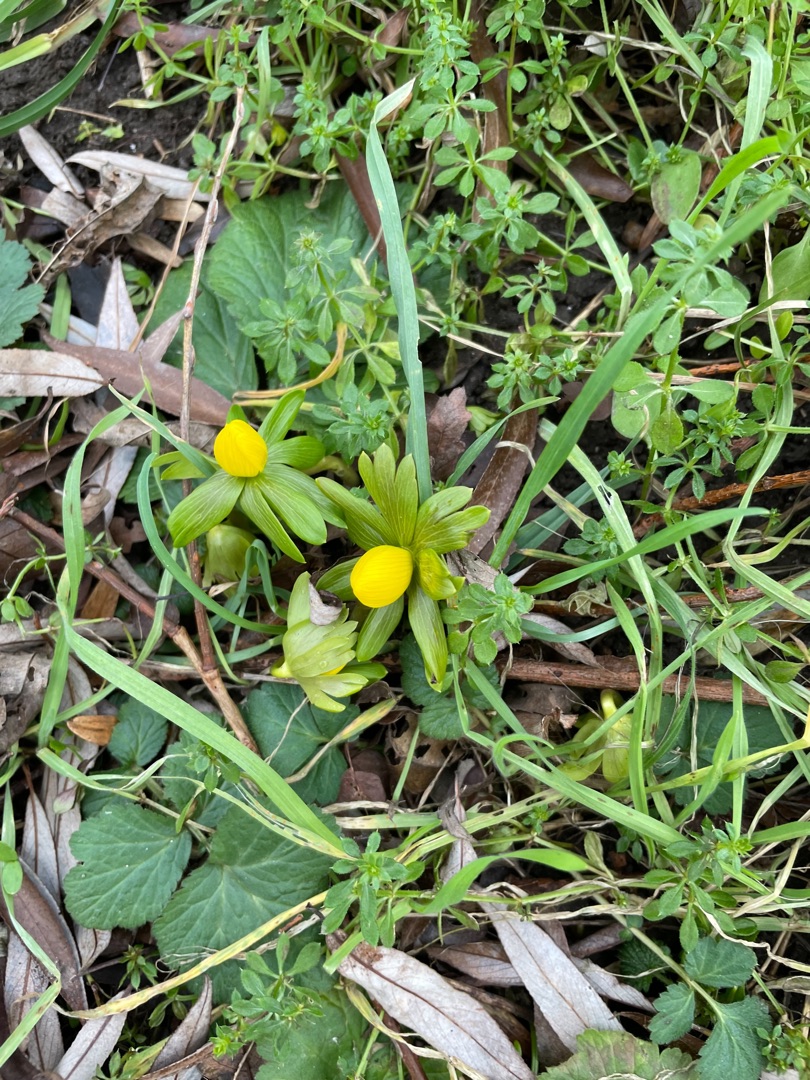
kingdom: Plantae
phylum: Tracheophyta
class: Magnoliopsida
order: Ranunculales
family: Ranunculaceae
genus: Eranthis
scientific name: Eranthis hyemalis
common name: Erantis
